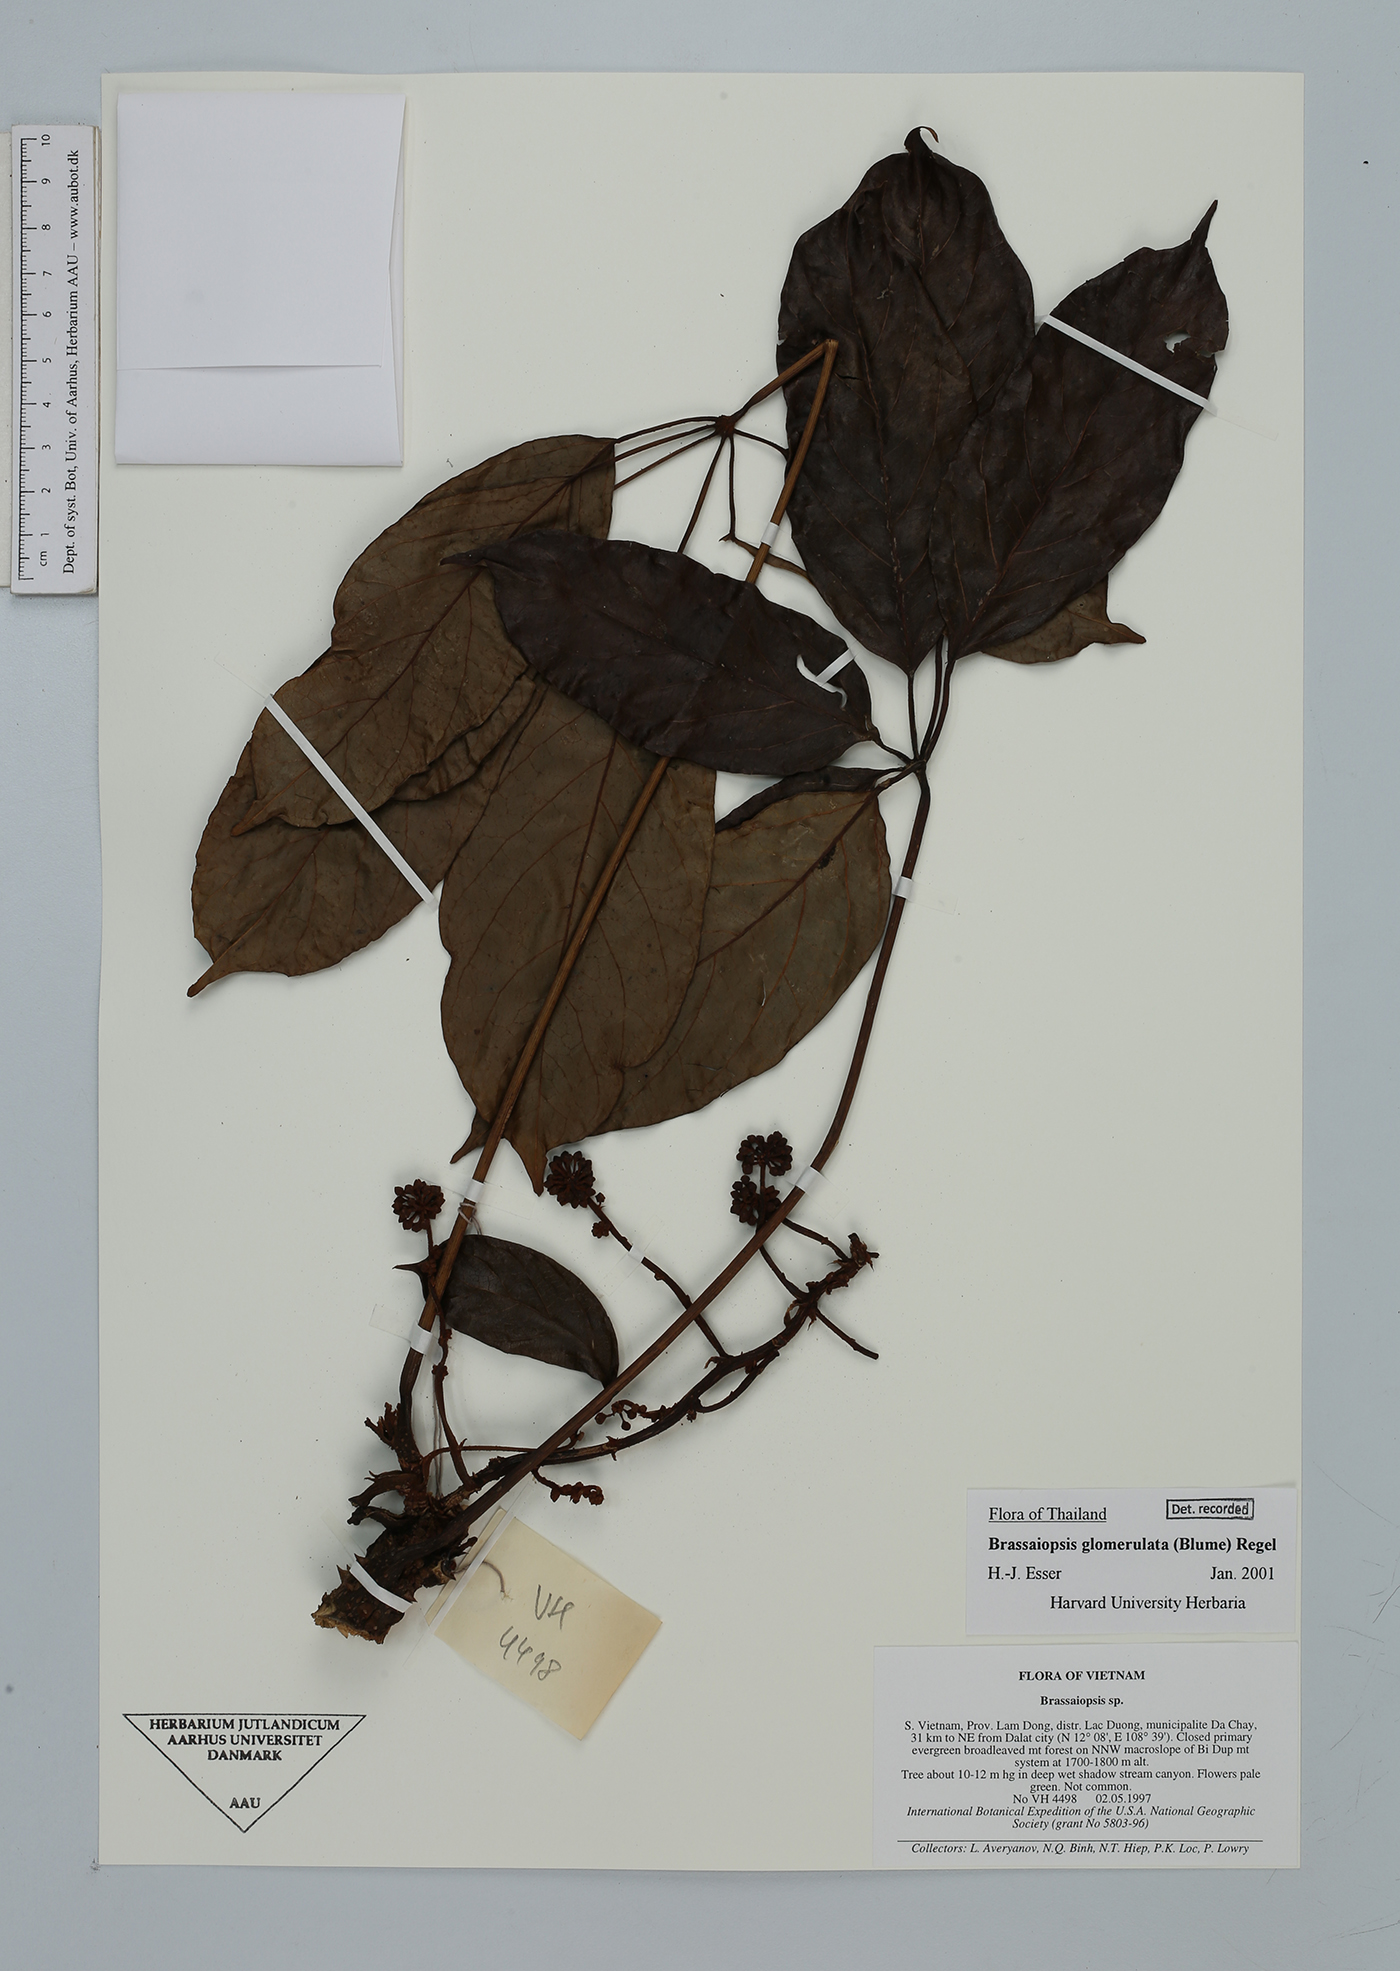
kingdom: Plantae
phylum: Tracheophyta
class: Magnoliopsida
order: Apiales
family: Araliaceae
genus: Brassaiopsis
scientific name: Brassaiopsis glomerulata
